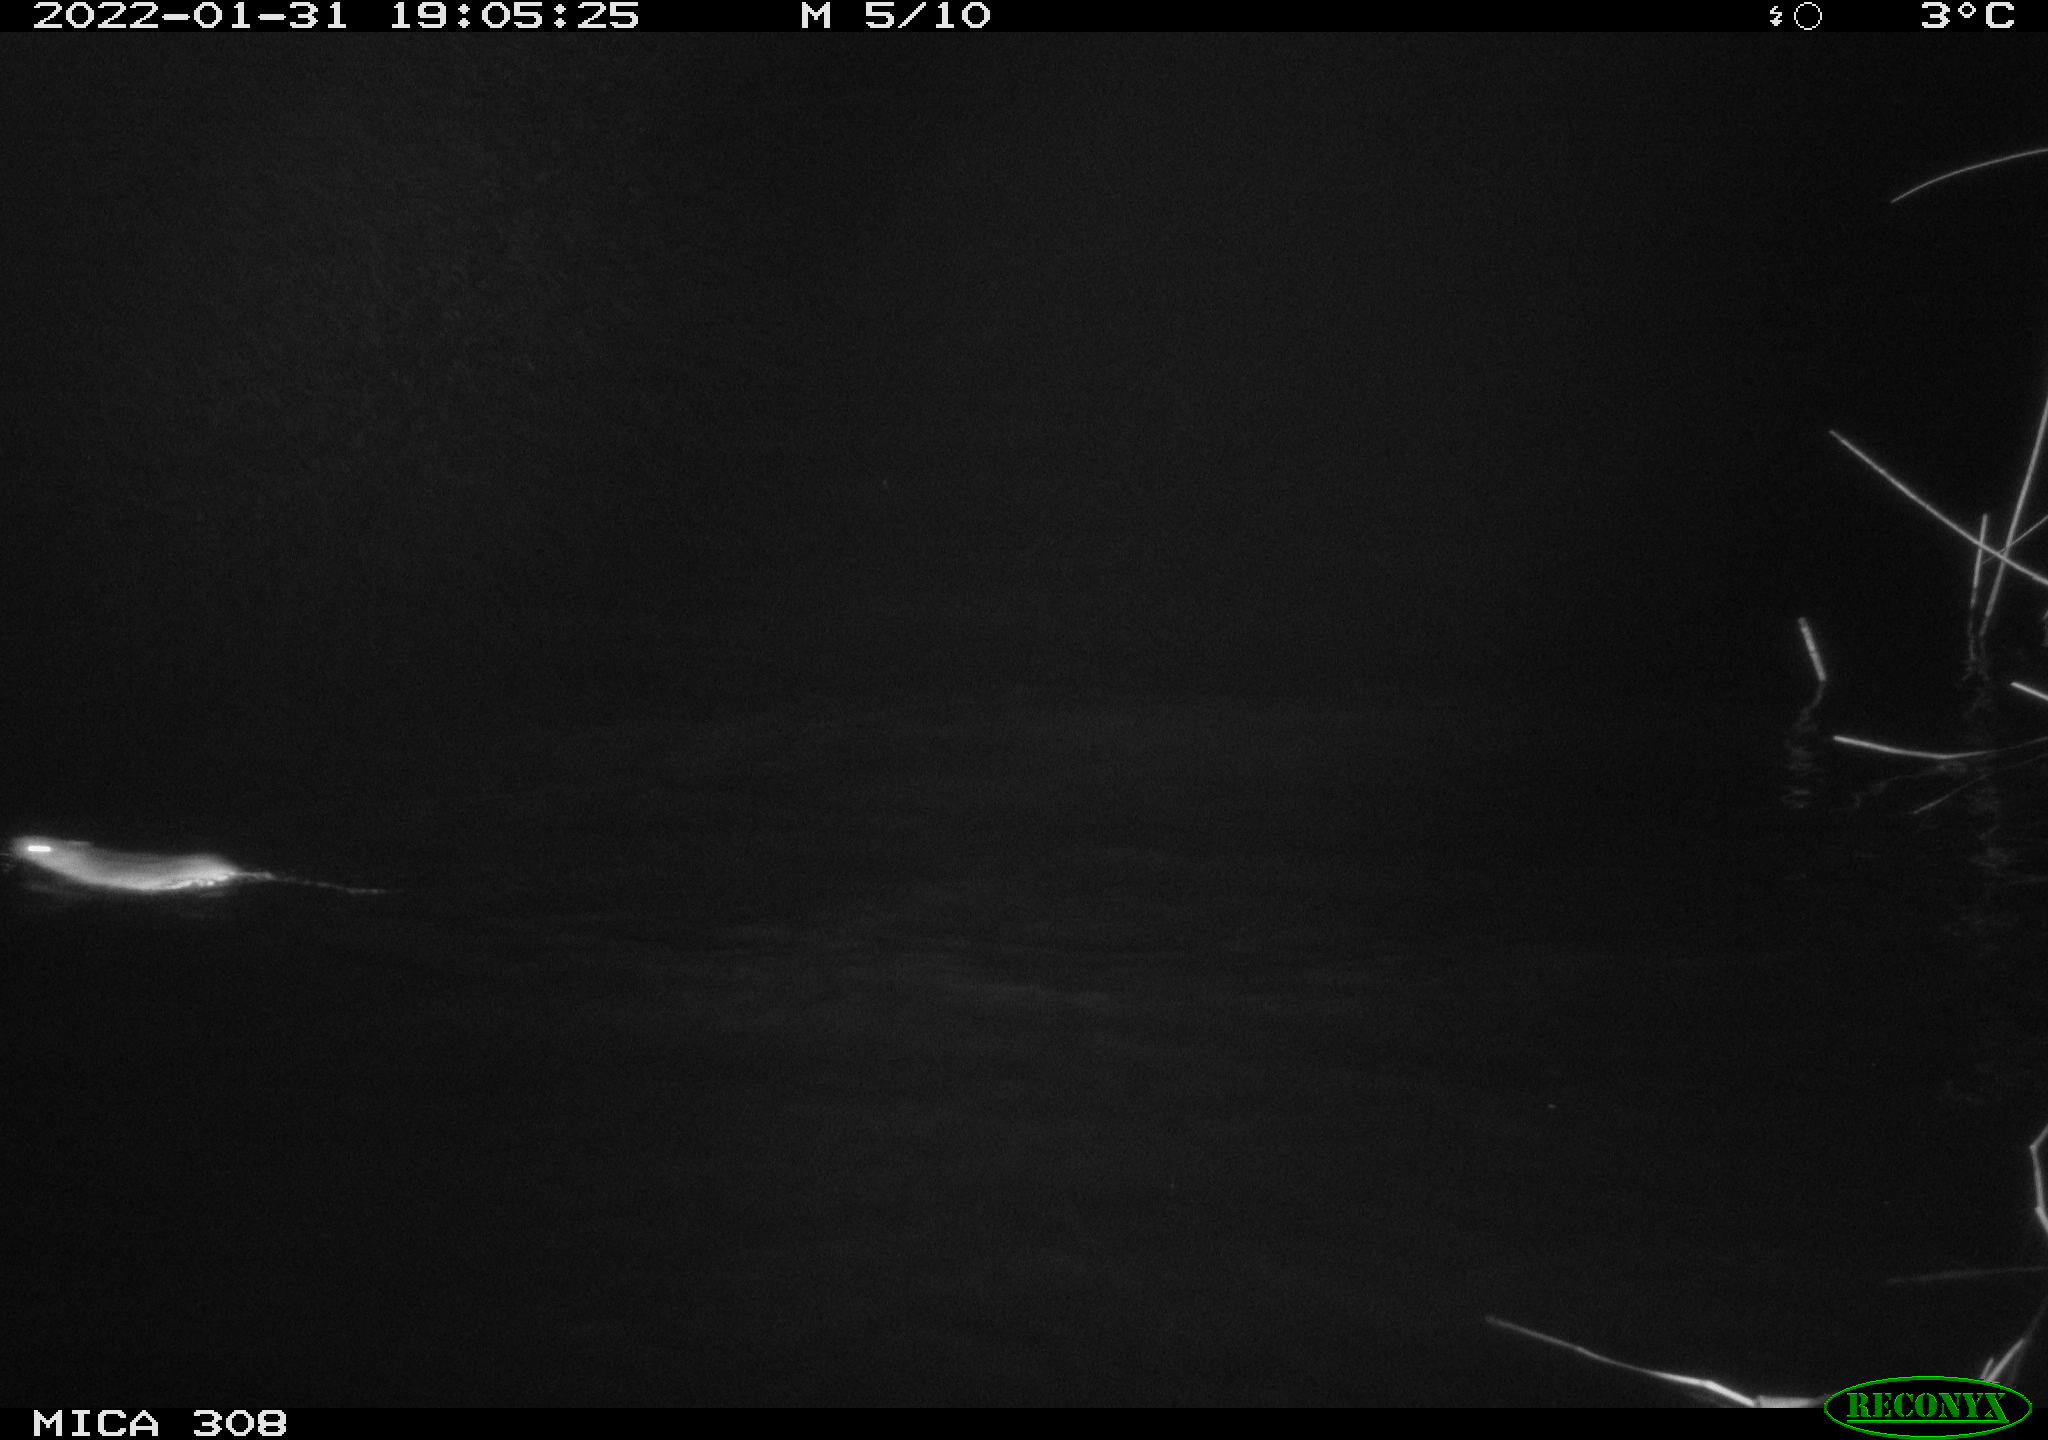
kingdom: Animalia
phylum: Chordata
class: Mammalia
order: Rodentia
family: Muridae
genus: Rattus
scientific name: Rattus norvegicus
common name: Brown rat
